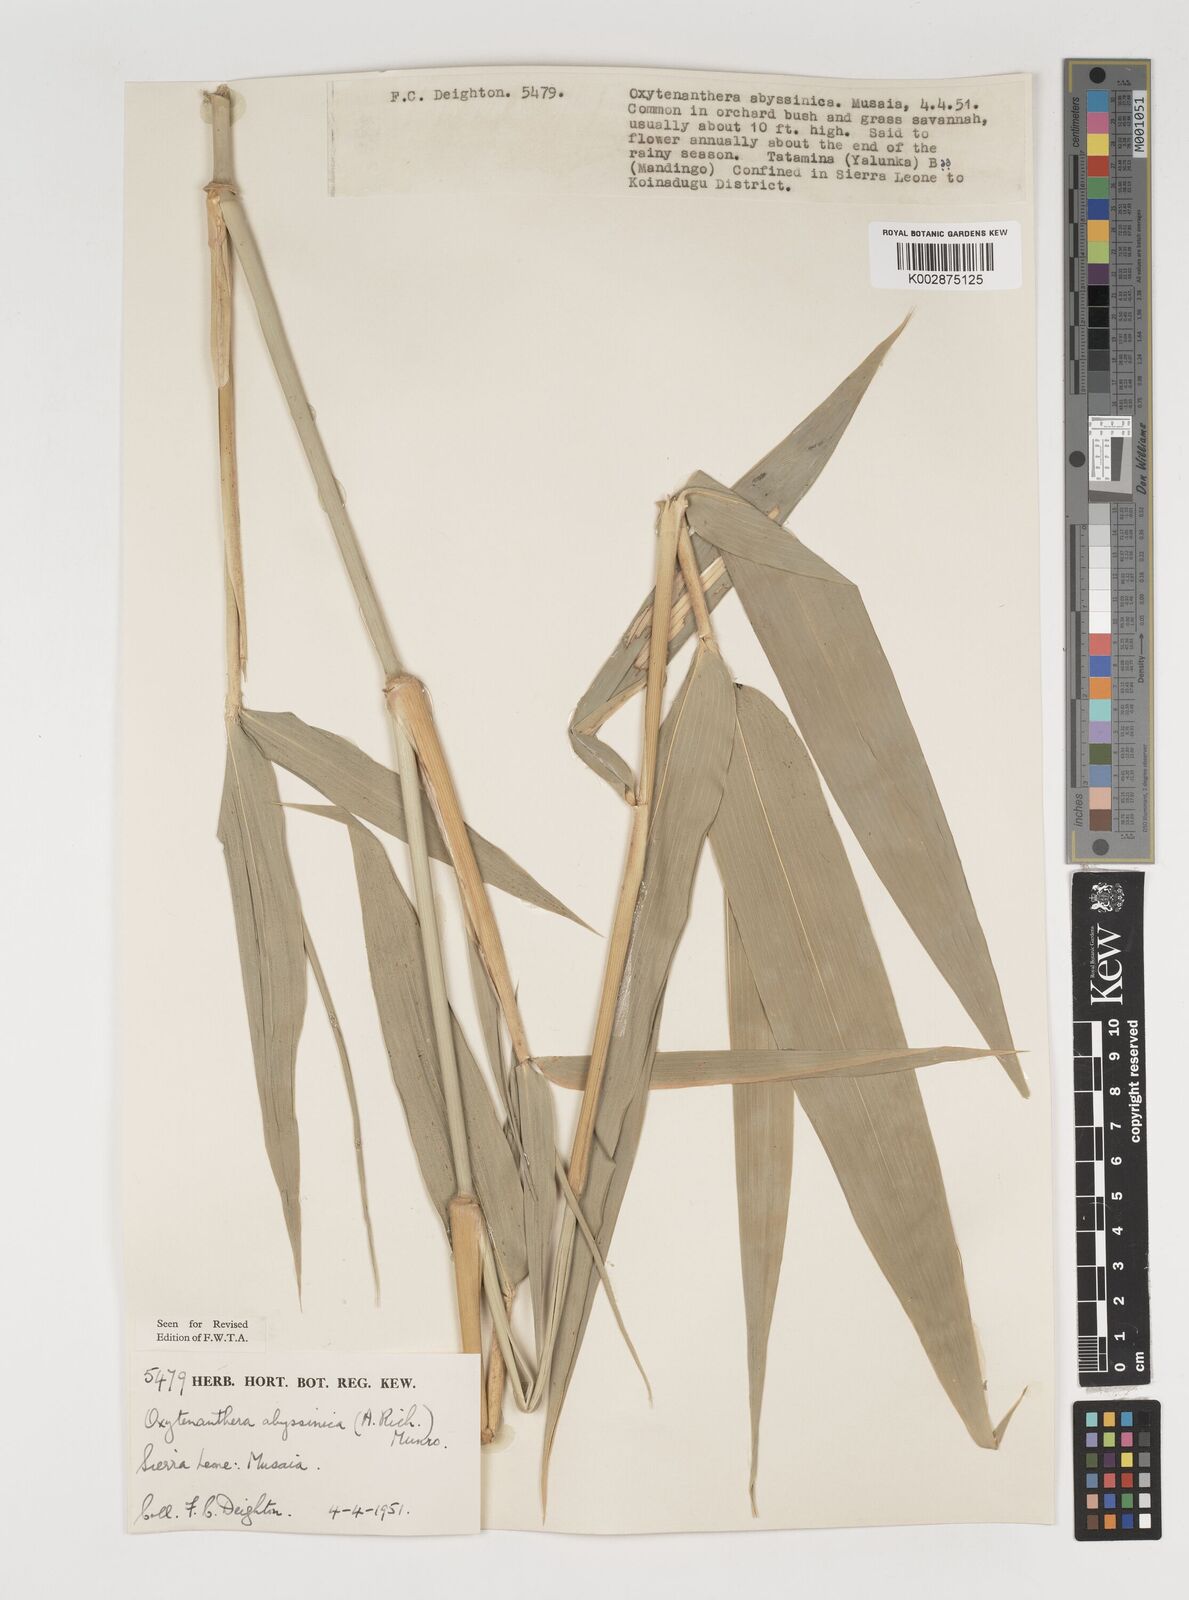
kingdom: Plantae
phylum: Tracheophyta
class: Liliopsida
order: Poales
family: Poaceae
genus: Oxytenanthera
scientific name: Oxytenanthera abyssinica
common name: Wine bamboo
